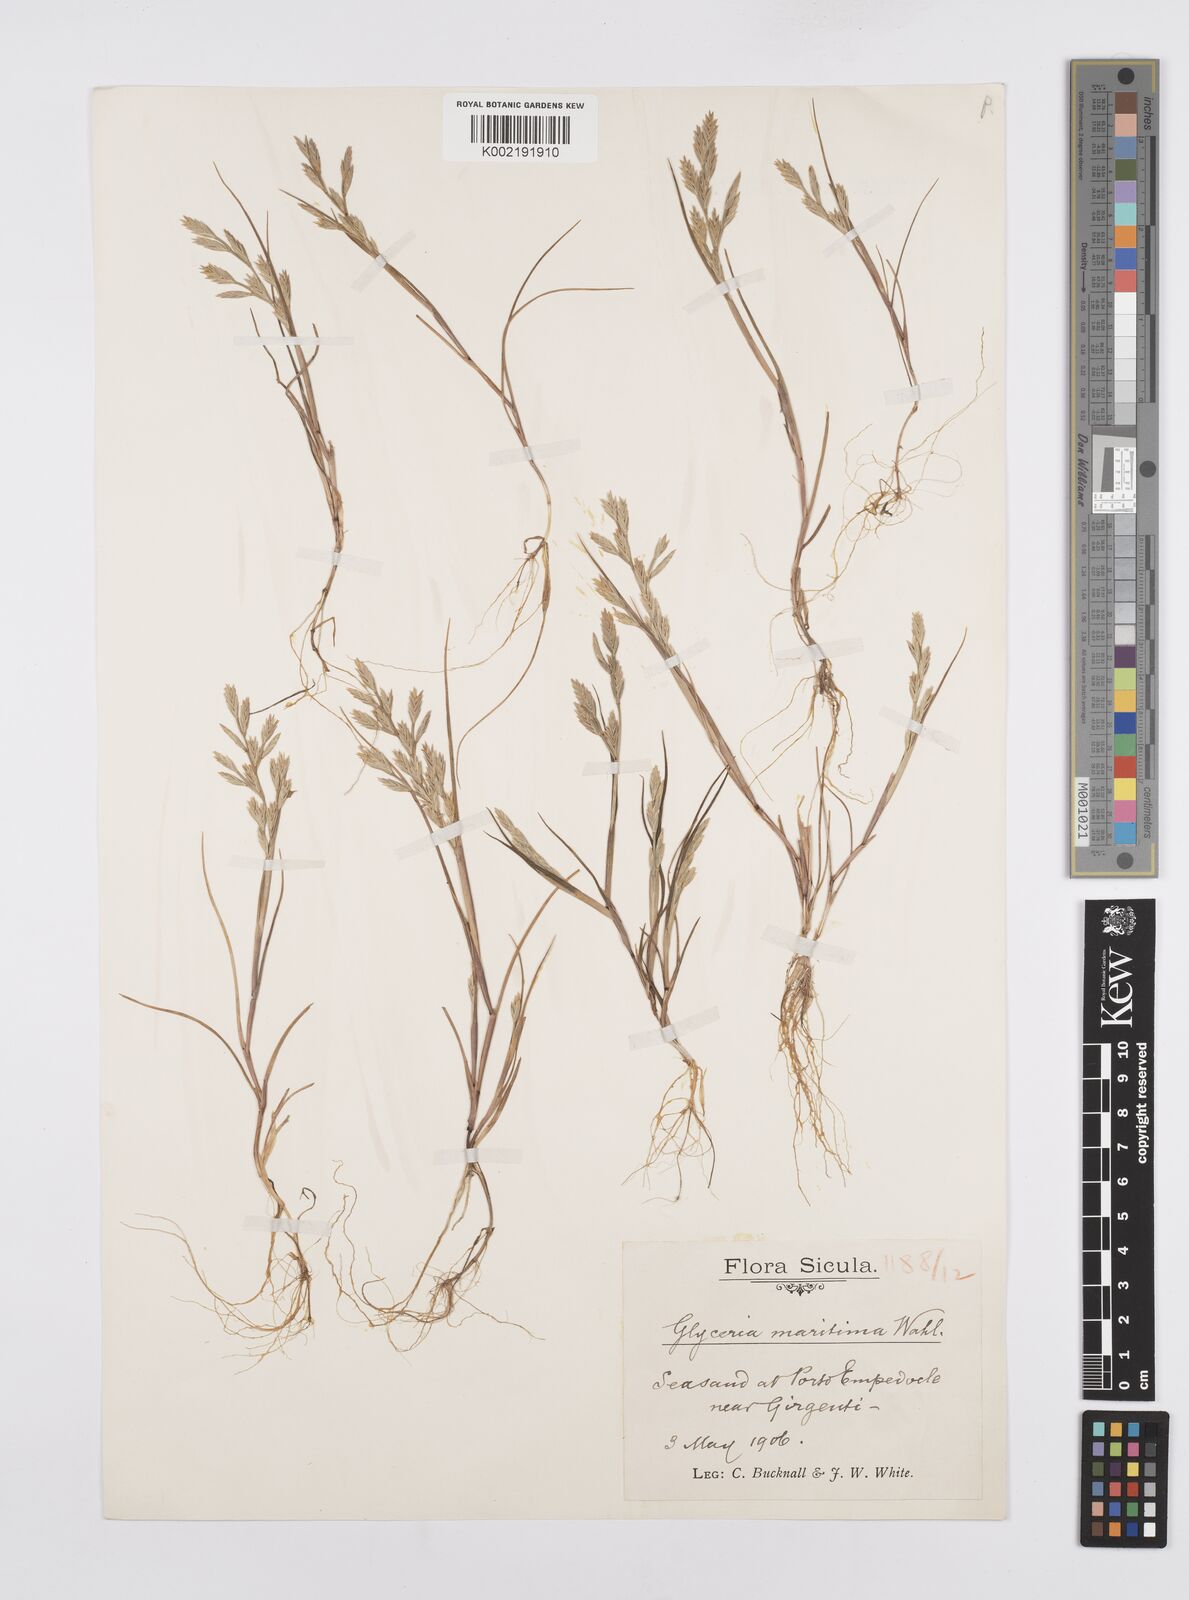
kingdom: Plantae
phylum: Tracheophyta
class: Liliopsida
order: Poales
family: Poaceae
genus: Cutandia
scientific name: Cutandia maritima
